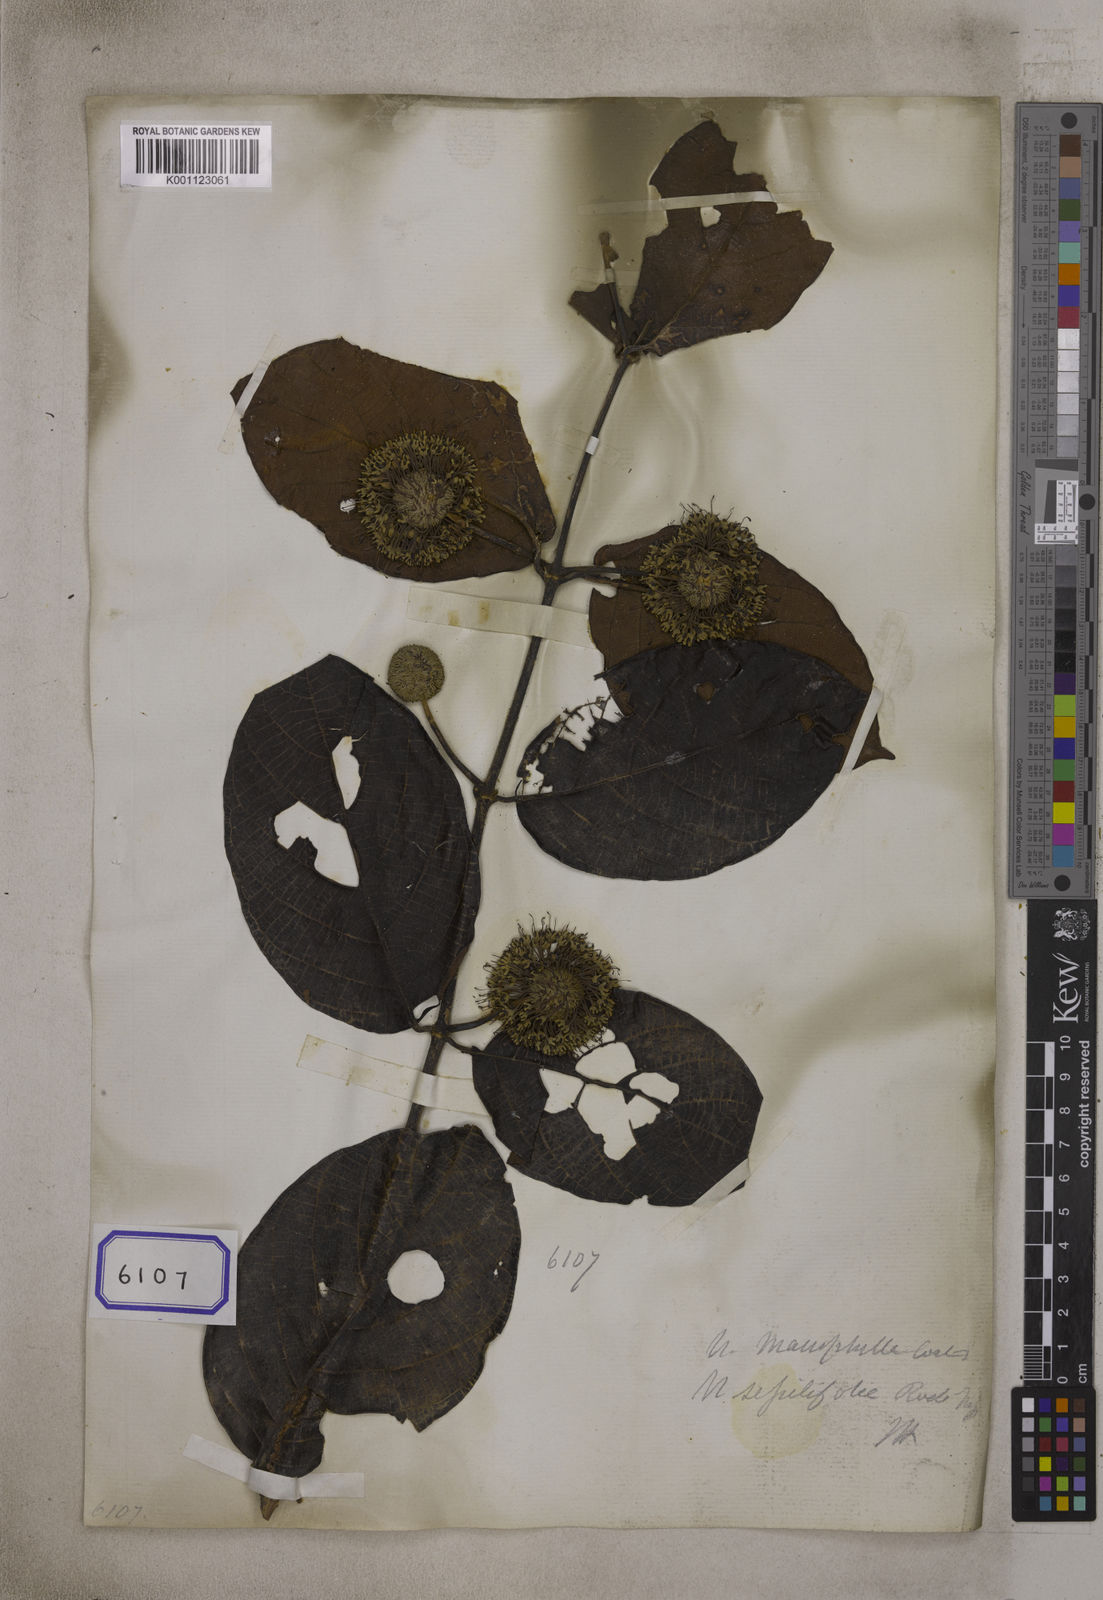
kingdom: Plantae
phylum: Tracheophyta
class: Magnoliopsida
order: Gentianales
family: Rubiaceae
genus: Uncaria
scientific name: Uncaria
